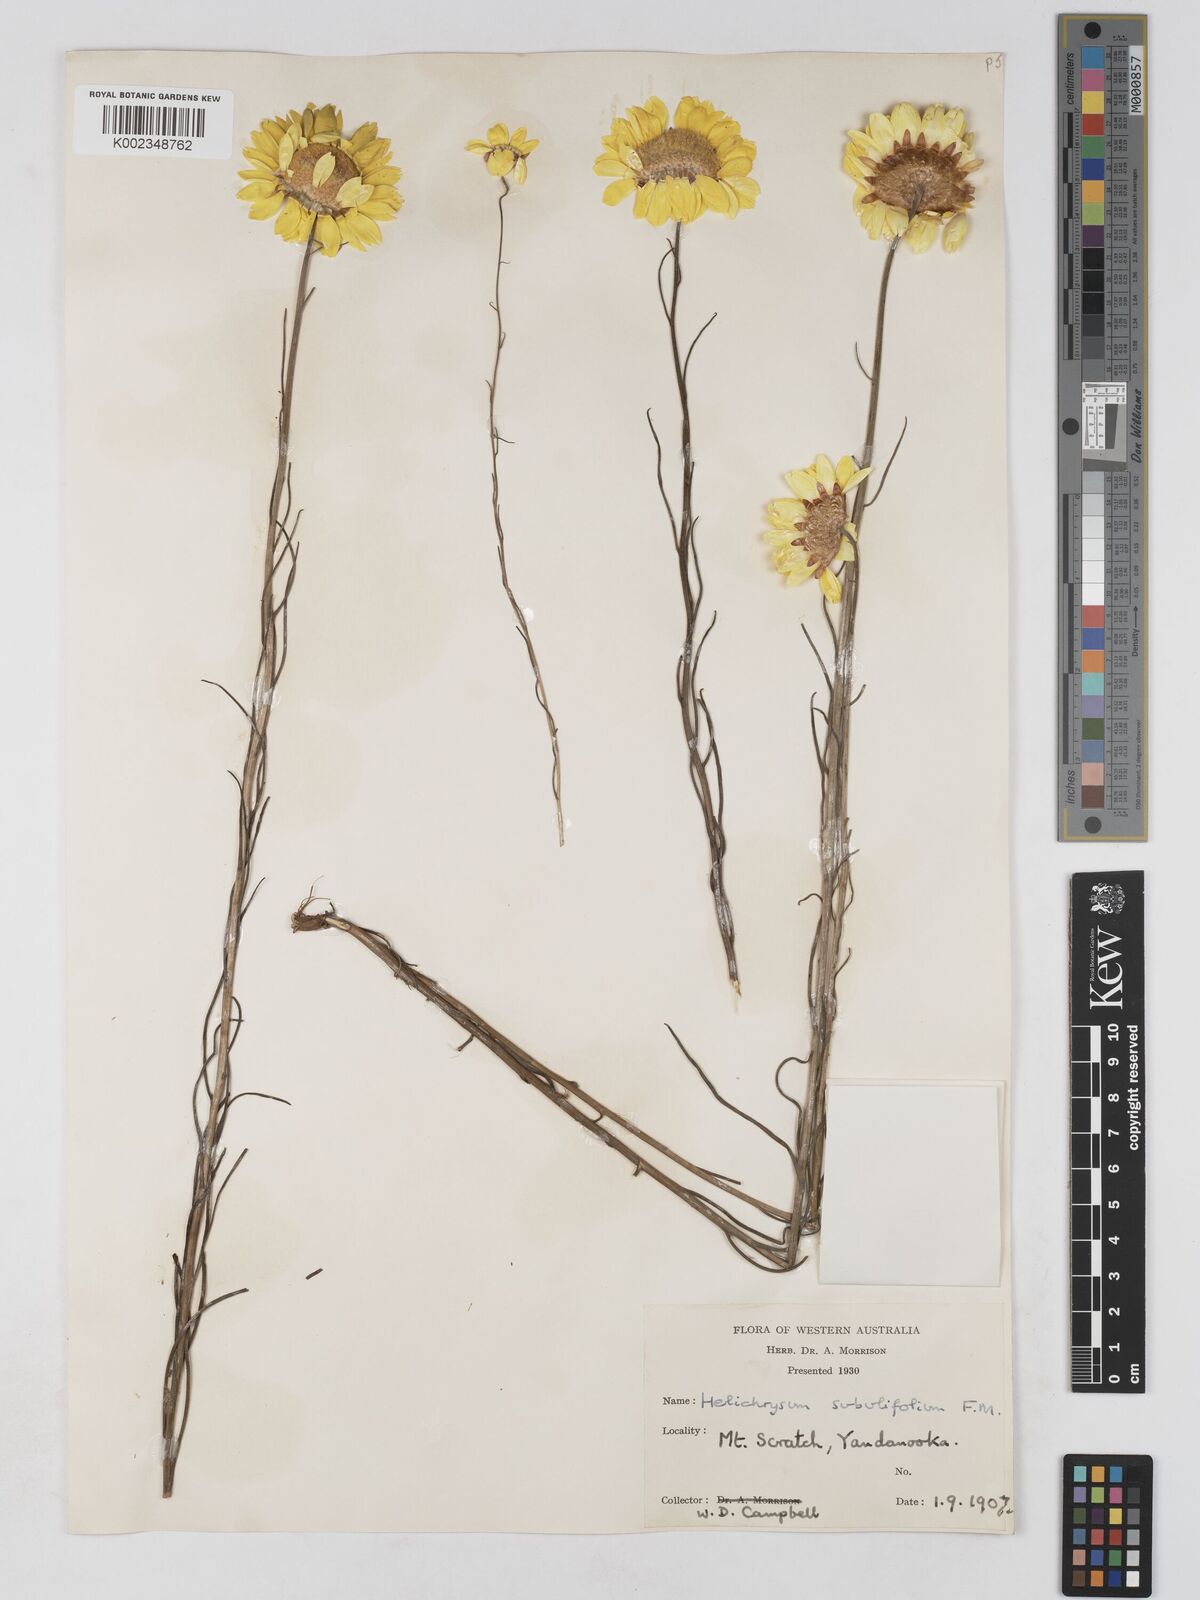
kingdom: Plantae
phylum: Tracheophyta
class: Magnoliopsida
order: Asterales
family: Asteraceae
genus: Schoenia
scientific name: Schoenia filifolia
